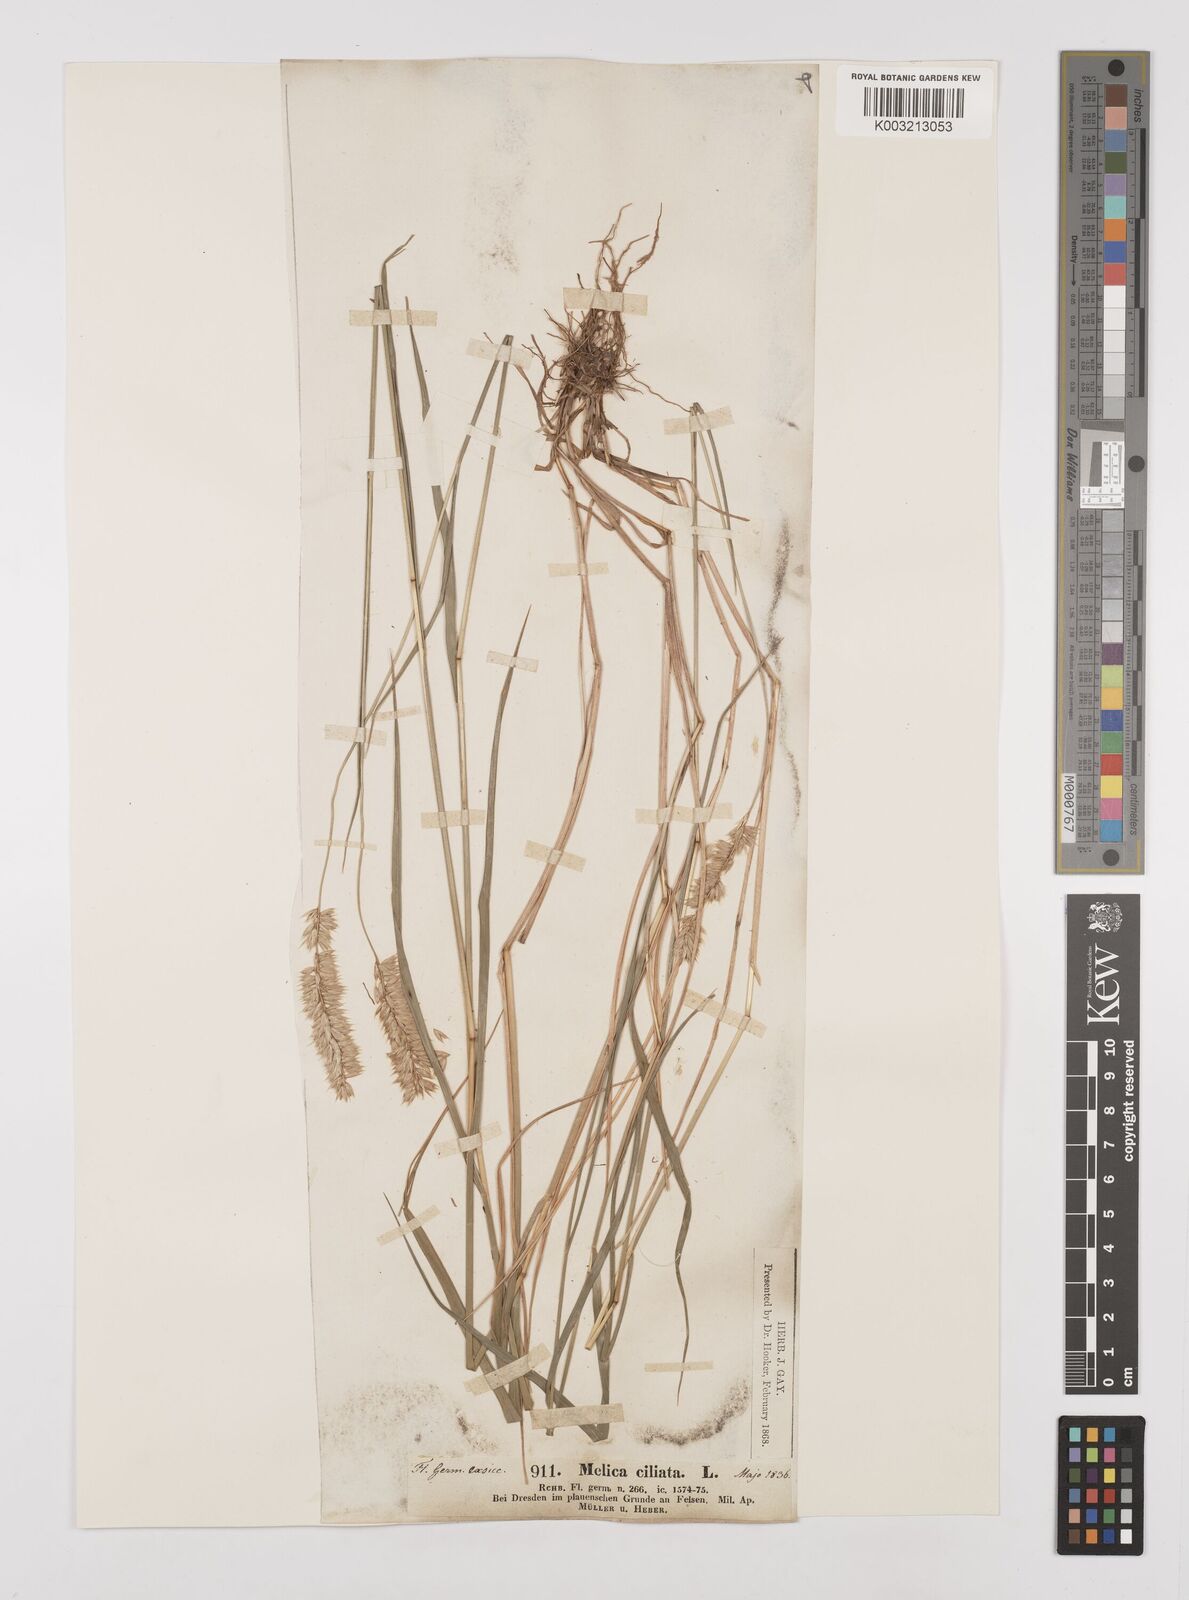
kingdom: Plantae
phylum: Tracheophyta
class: Liliopsida
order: Poales
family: Poaceae
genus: Melica
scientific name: Melica ciliata
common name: Hairy melicgrass
